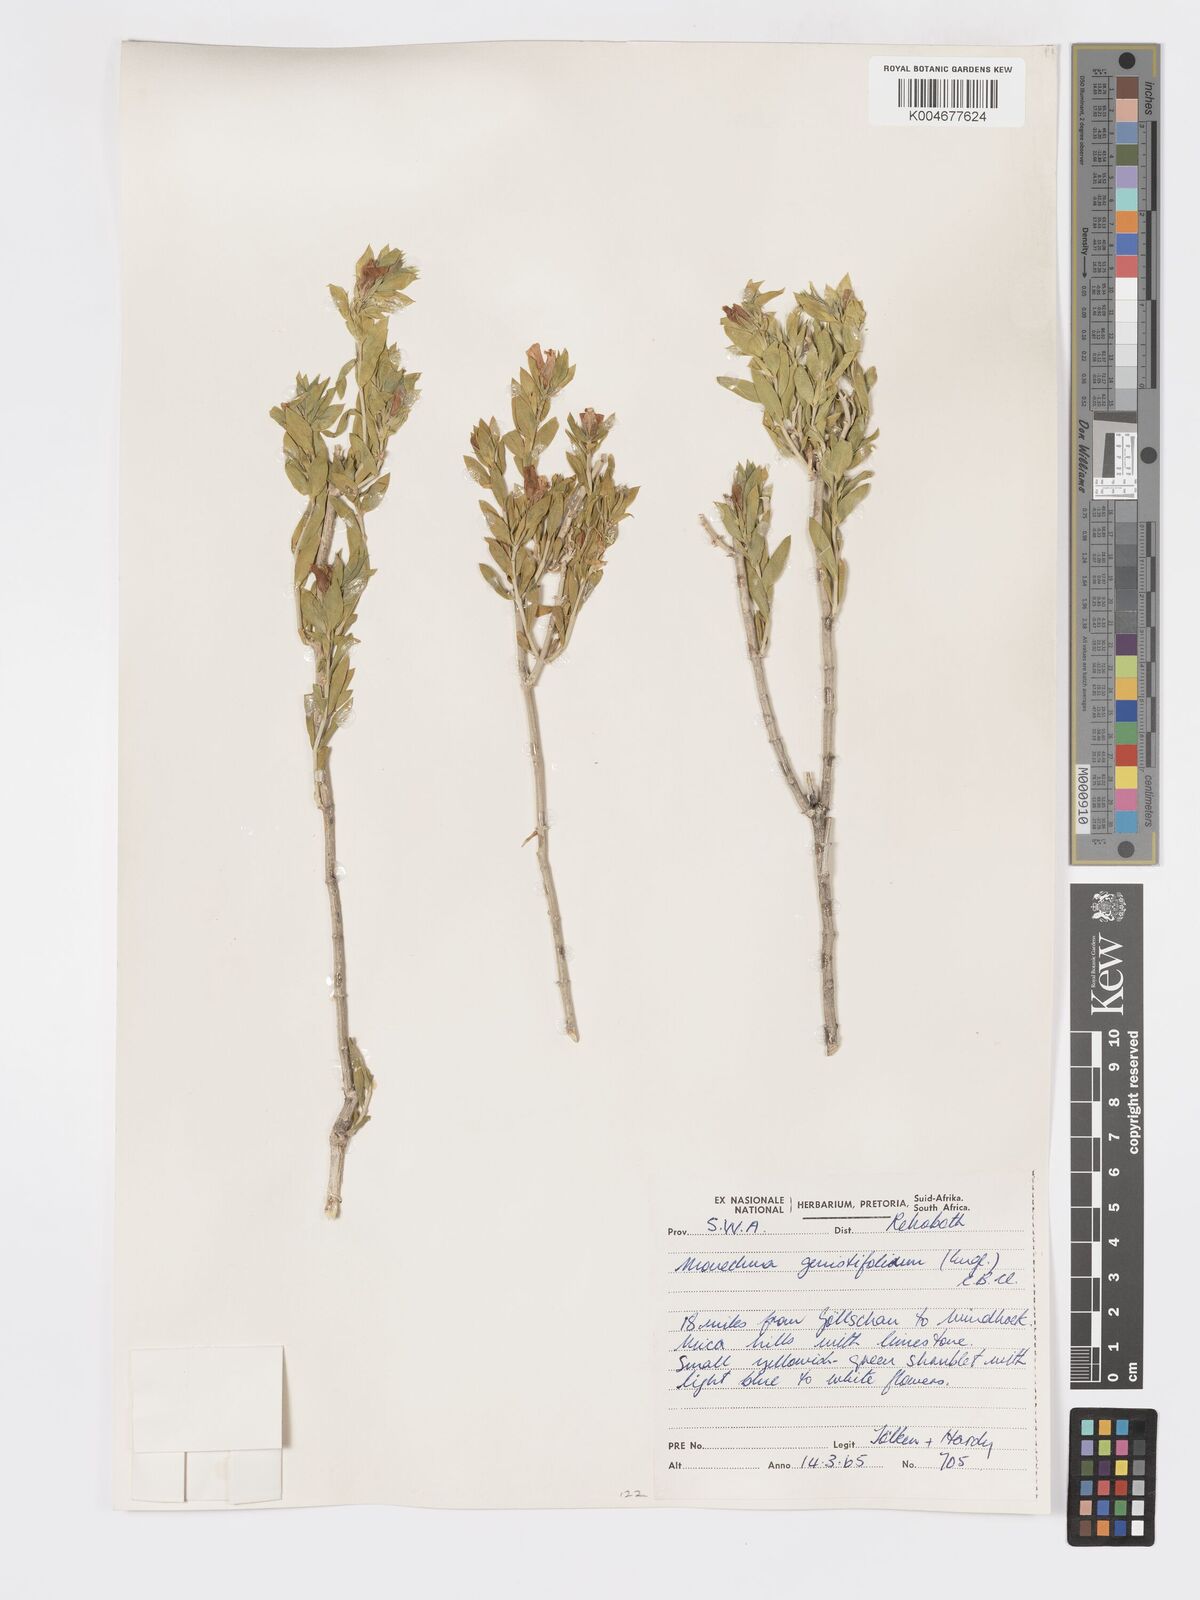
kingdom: Plantae
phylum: Tracheophyta
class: Magnoliopsida
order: Lamiales
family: Acanthaceae
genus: Pogonospermum
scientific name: Pogonospermum
